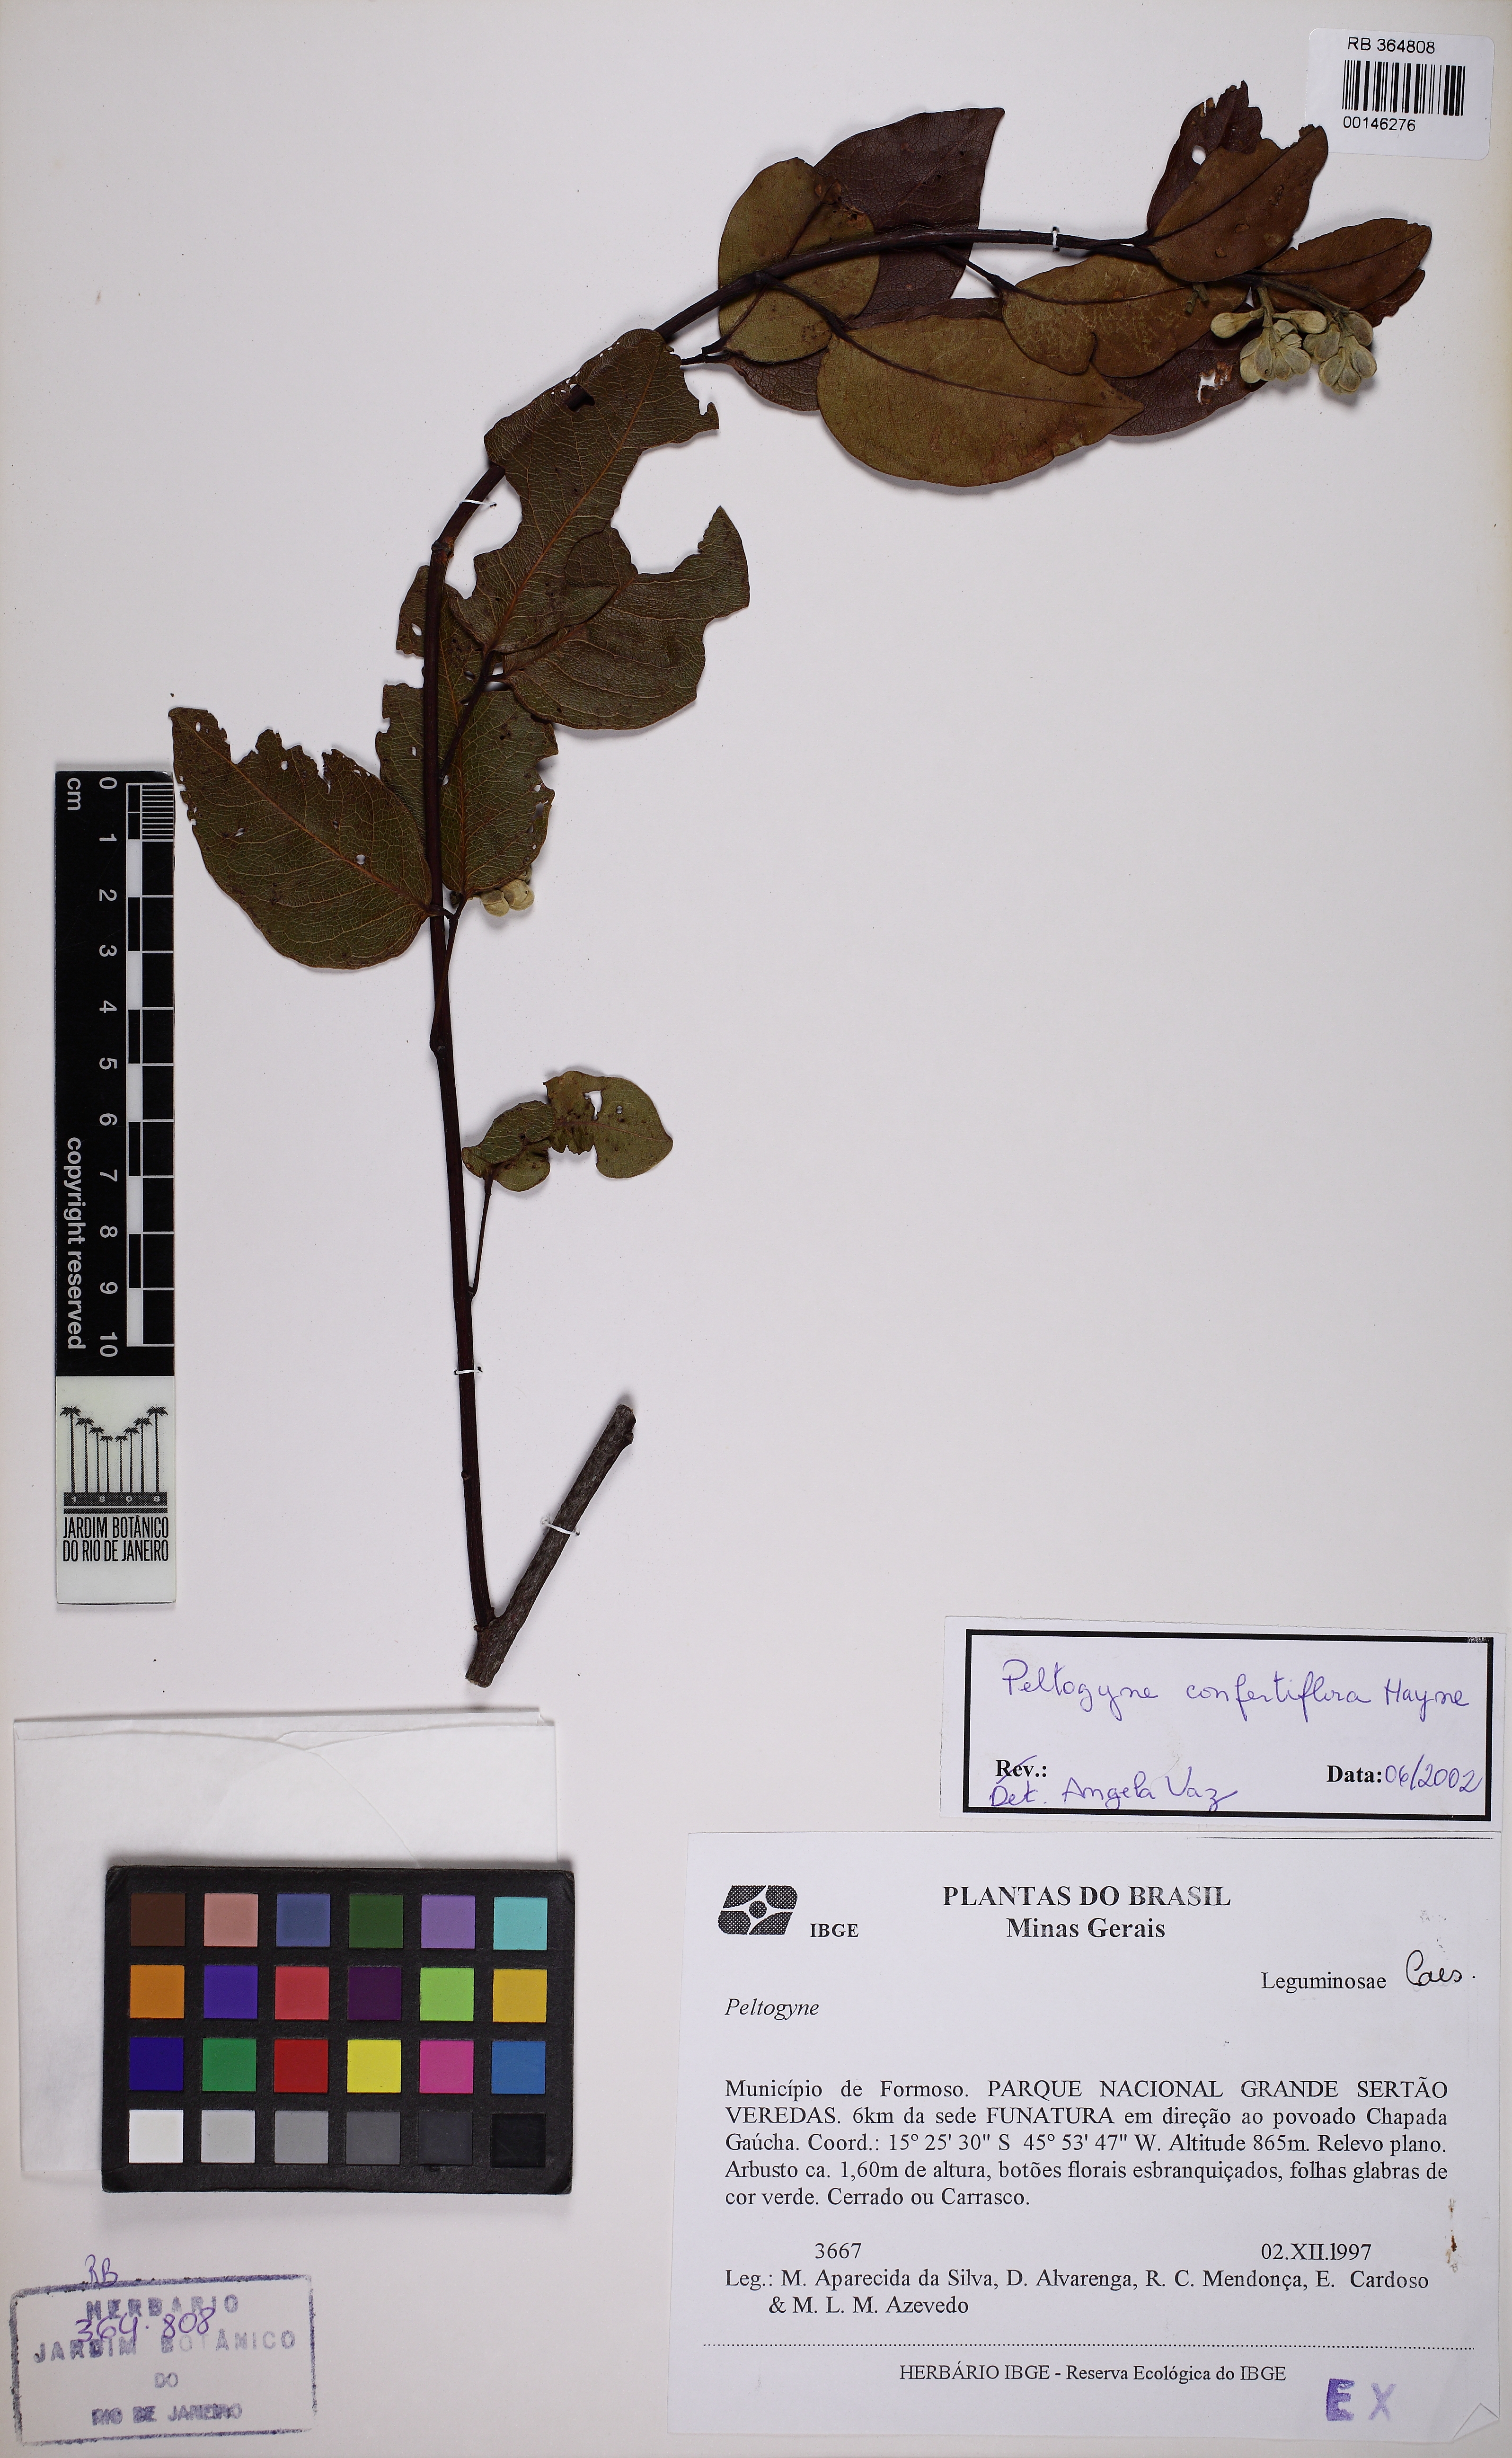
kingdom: Plantae
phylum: Tracheophyta
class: Magnoliopsida
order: Fabales
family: Fabaceae
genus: Peltogyne
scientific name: Peltogyne confertiflora
